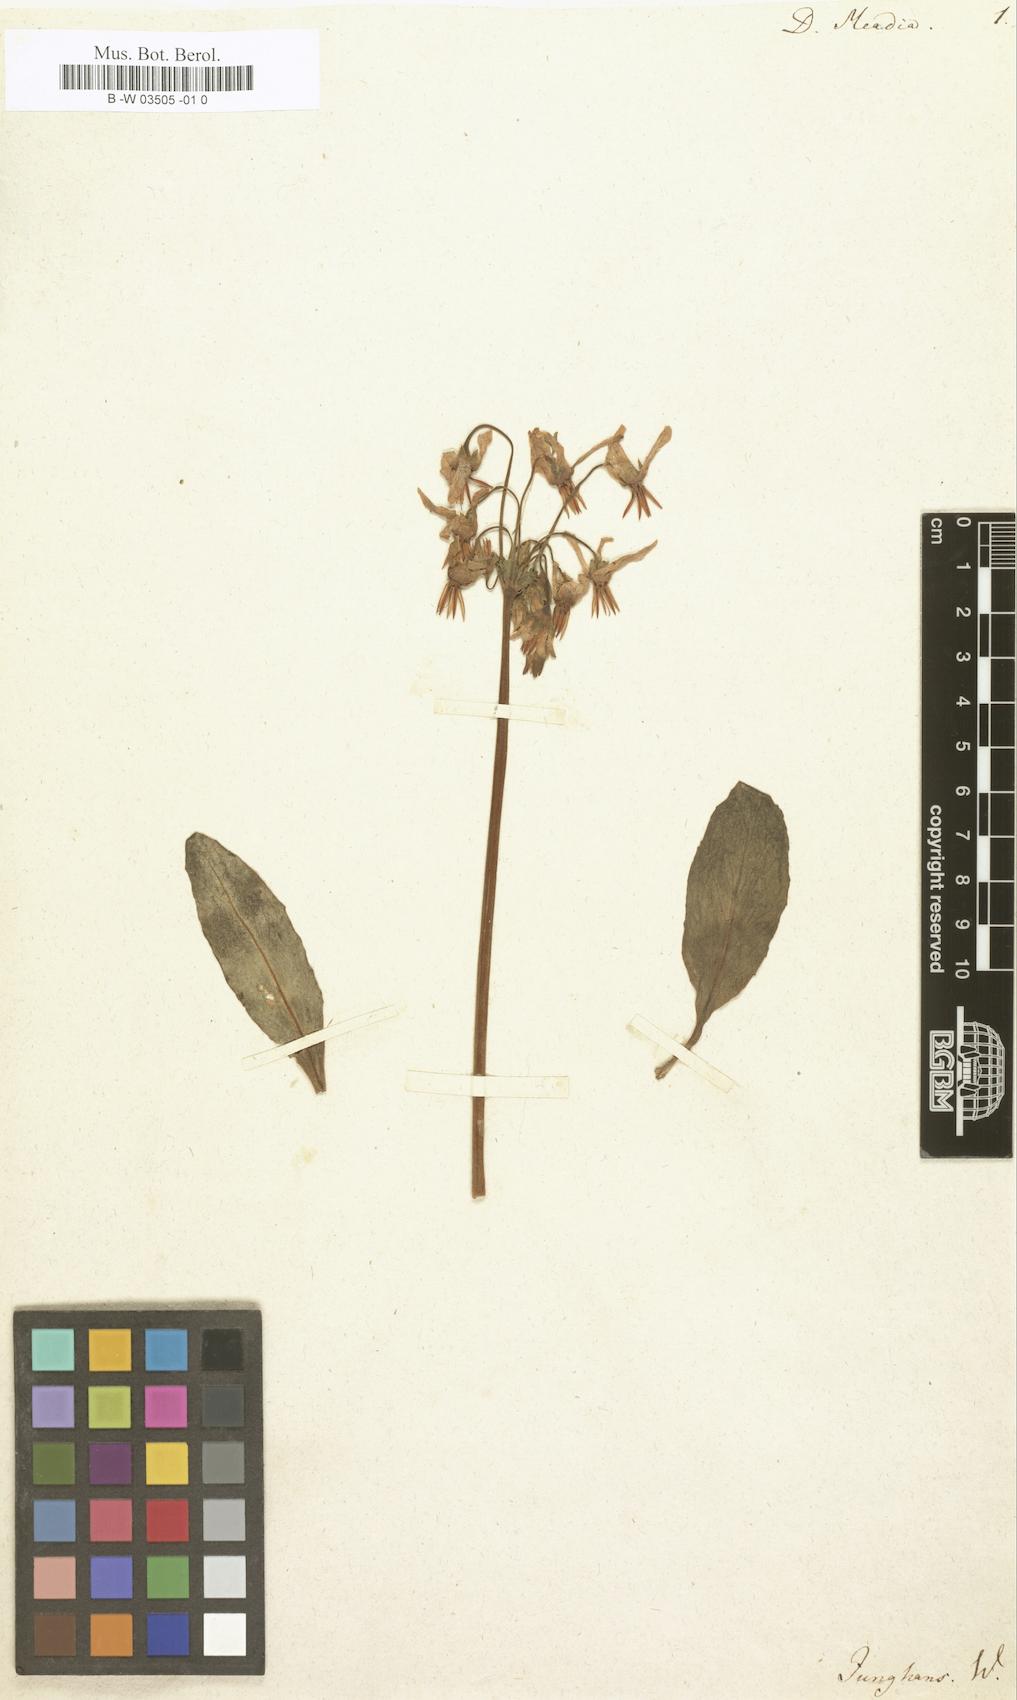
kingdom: Plantae
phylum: Tracheophyta
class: Magnoliopsida
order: Ericales
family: Primulaceae
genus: Dodecatheon
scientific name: Dodecatheon meadia
